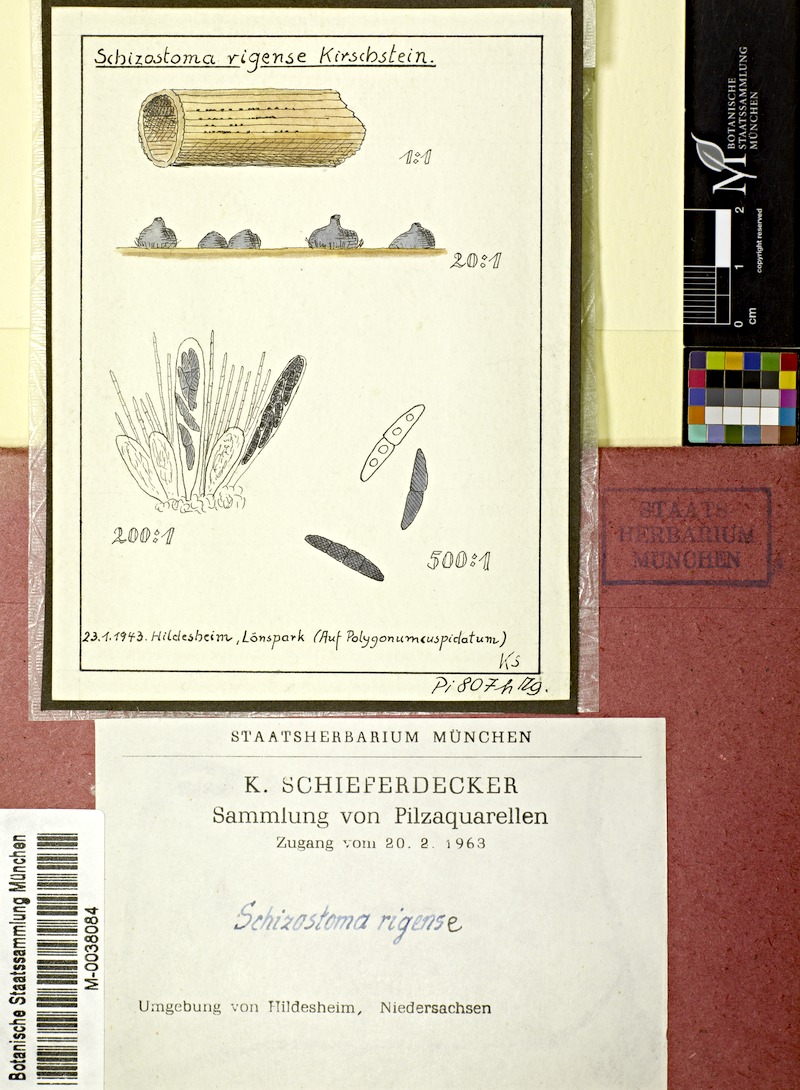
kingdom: Fungi
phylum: Ascomycota
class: Dothideomycetes
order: Pleosporales
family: Lophiostomataceae
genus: Lophiostoma
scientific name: Lophiostoma
